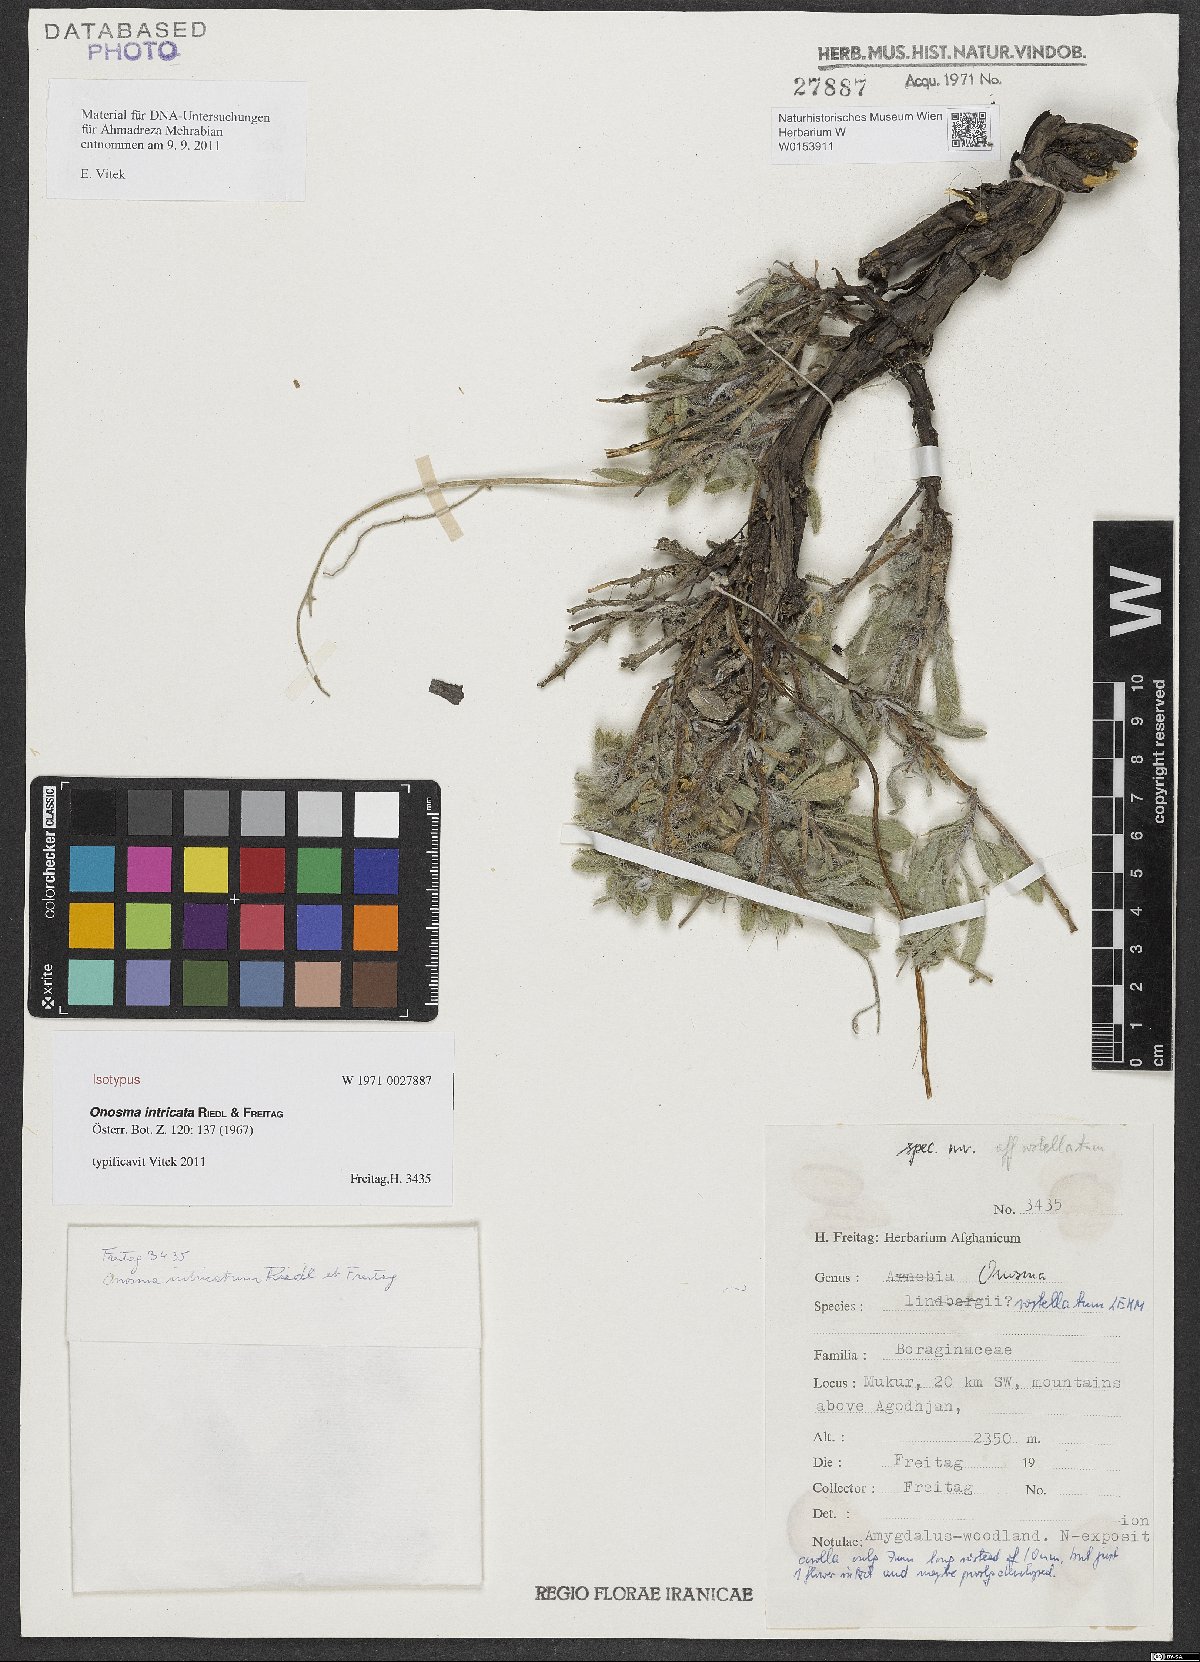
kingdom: Plantae
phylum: Tracheophyta
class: Magnoliopsida
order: Boraginales
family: Boraginaceae
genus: Maharanga
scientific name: Maharanga intricata
